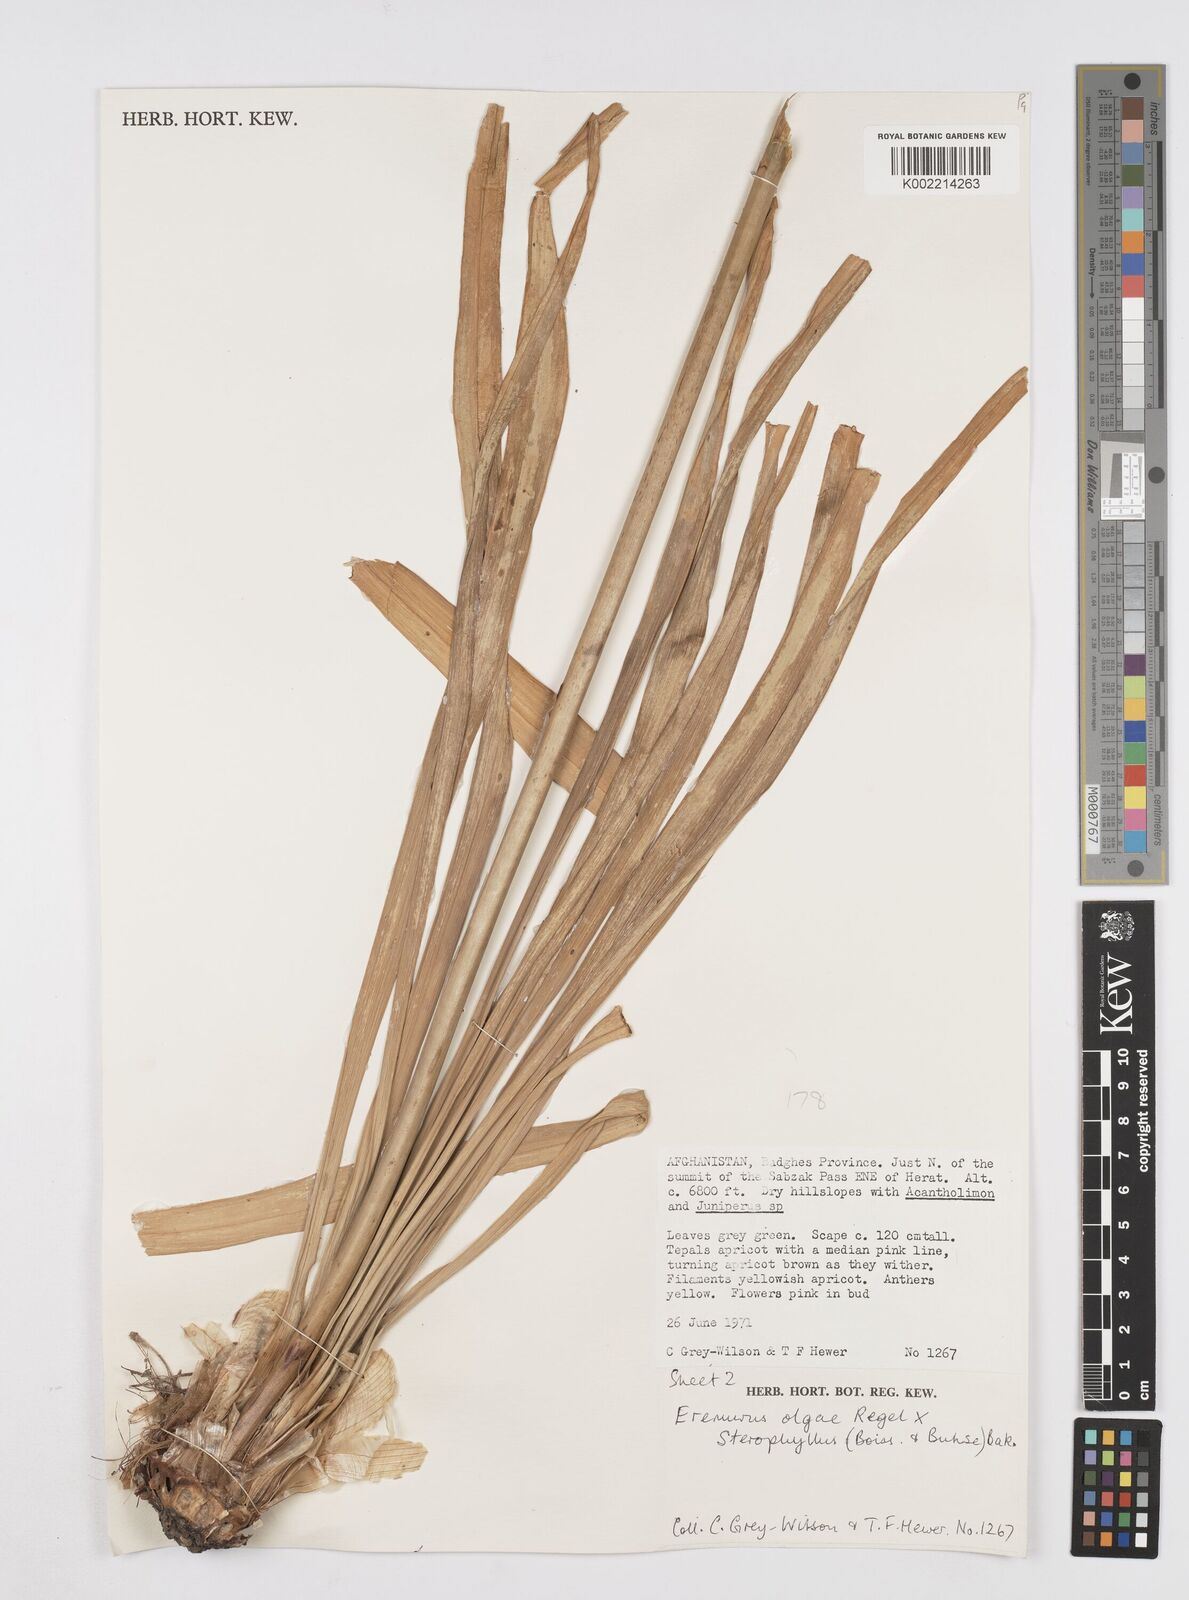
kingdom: Plantae
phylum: Tracheophyta
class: Liliopsida
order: Asparagales
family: Asphodelaceae
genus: Eremurus
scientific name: Eremurus olgae
